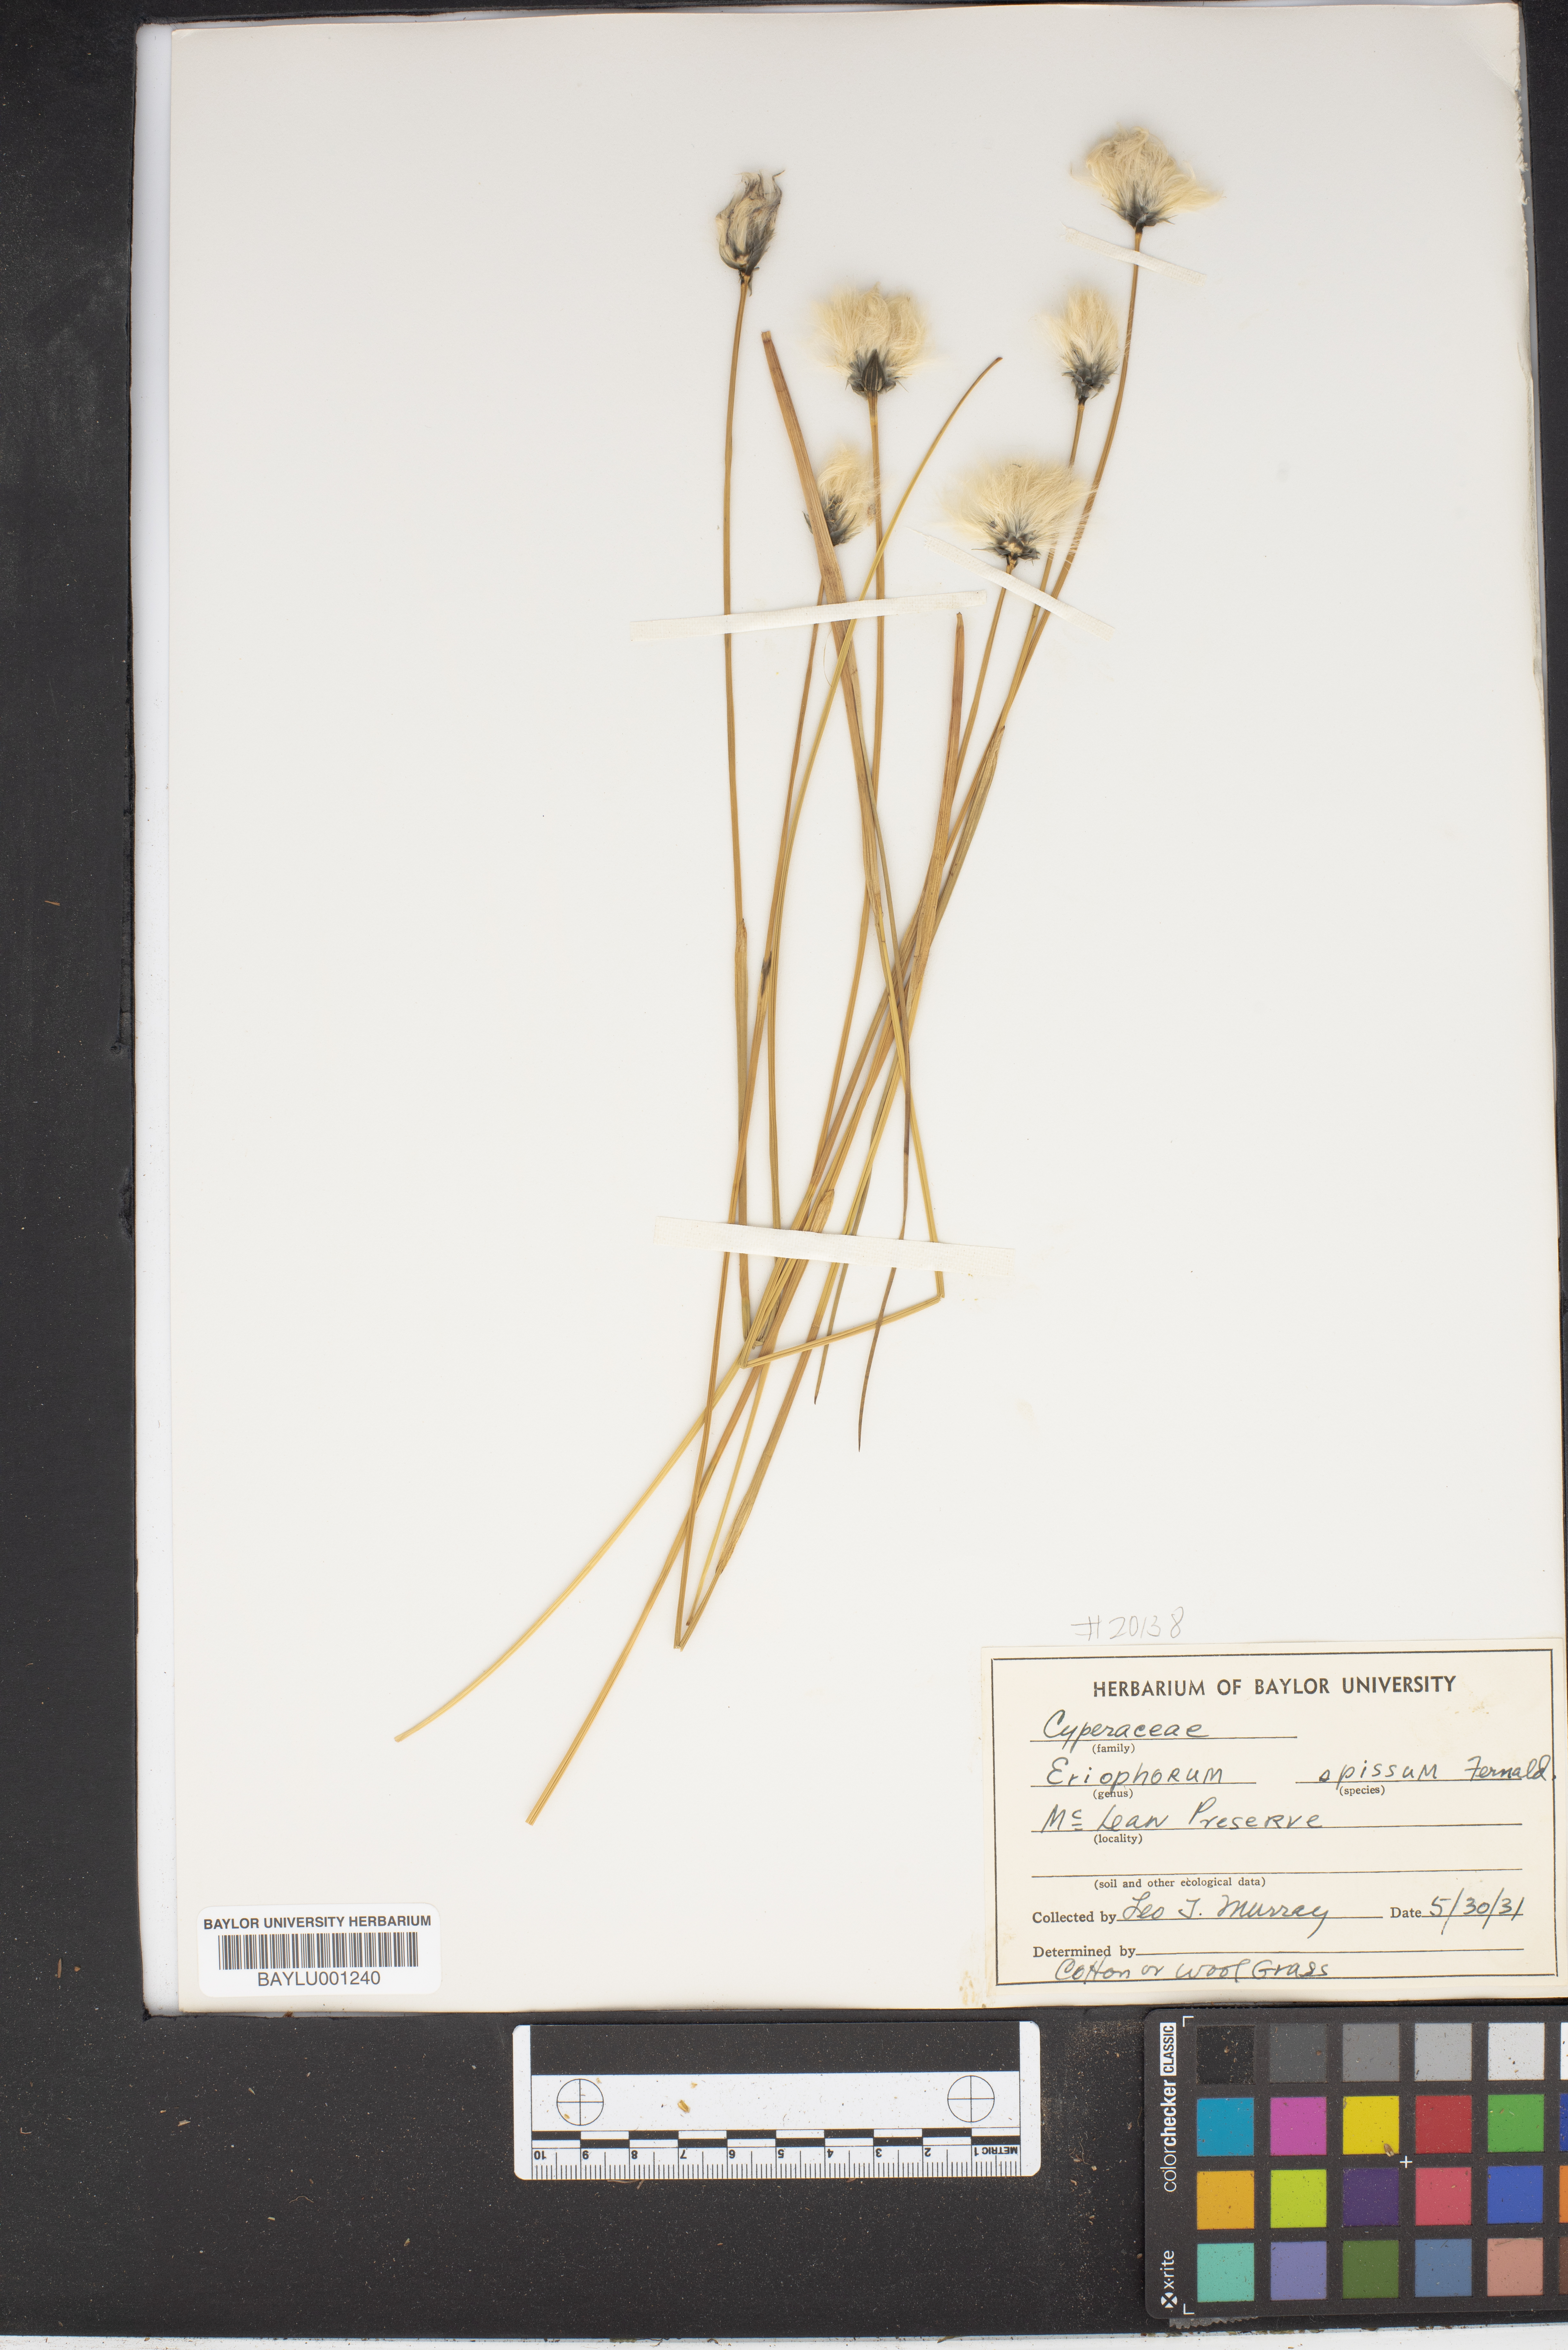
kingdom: Plantae
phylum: Tracheophyta
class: Liliopsida
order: Poales
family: Cyperaceae
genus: Eriophorum
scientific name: Eriophorum vaginatum
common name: Hare's-tail cottongrass
